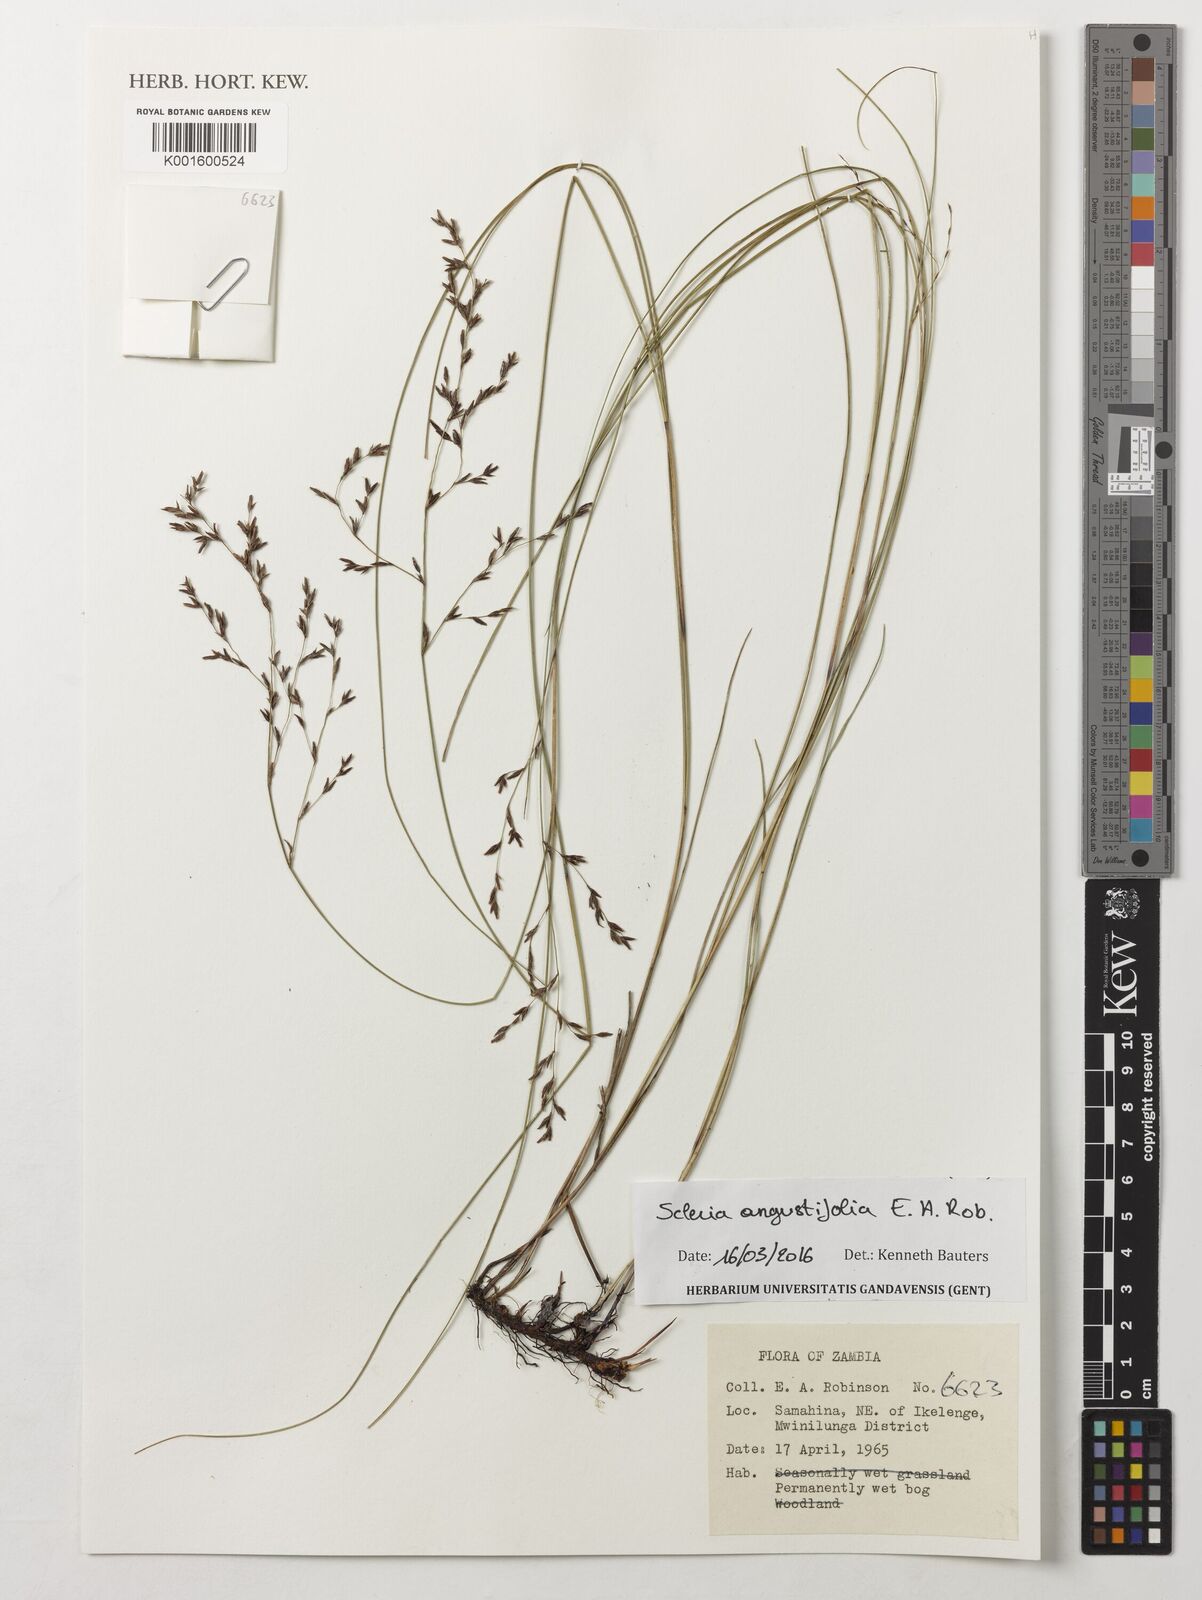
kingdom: Plantae
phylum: Tracheophyta
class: Liliopsida
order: Poales
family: Cyperaceae
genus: Scleria
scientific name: Scleria angustifolia
